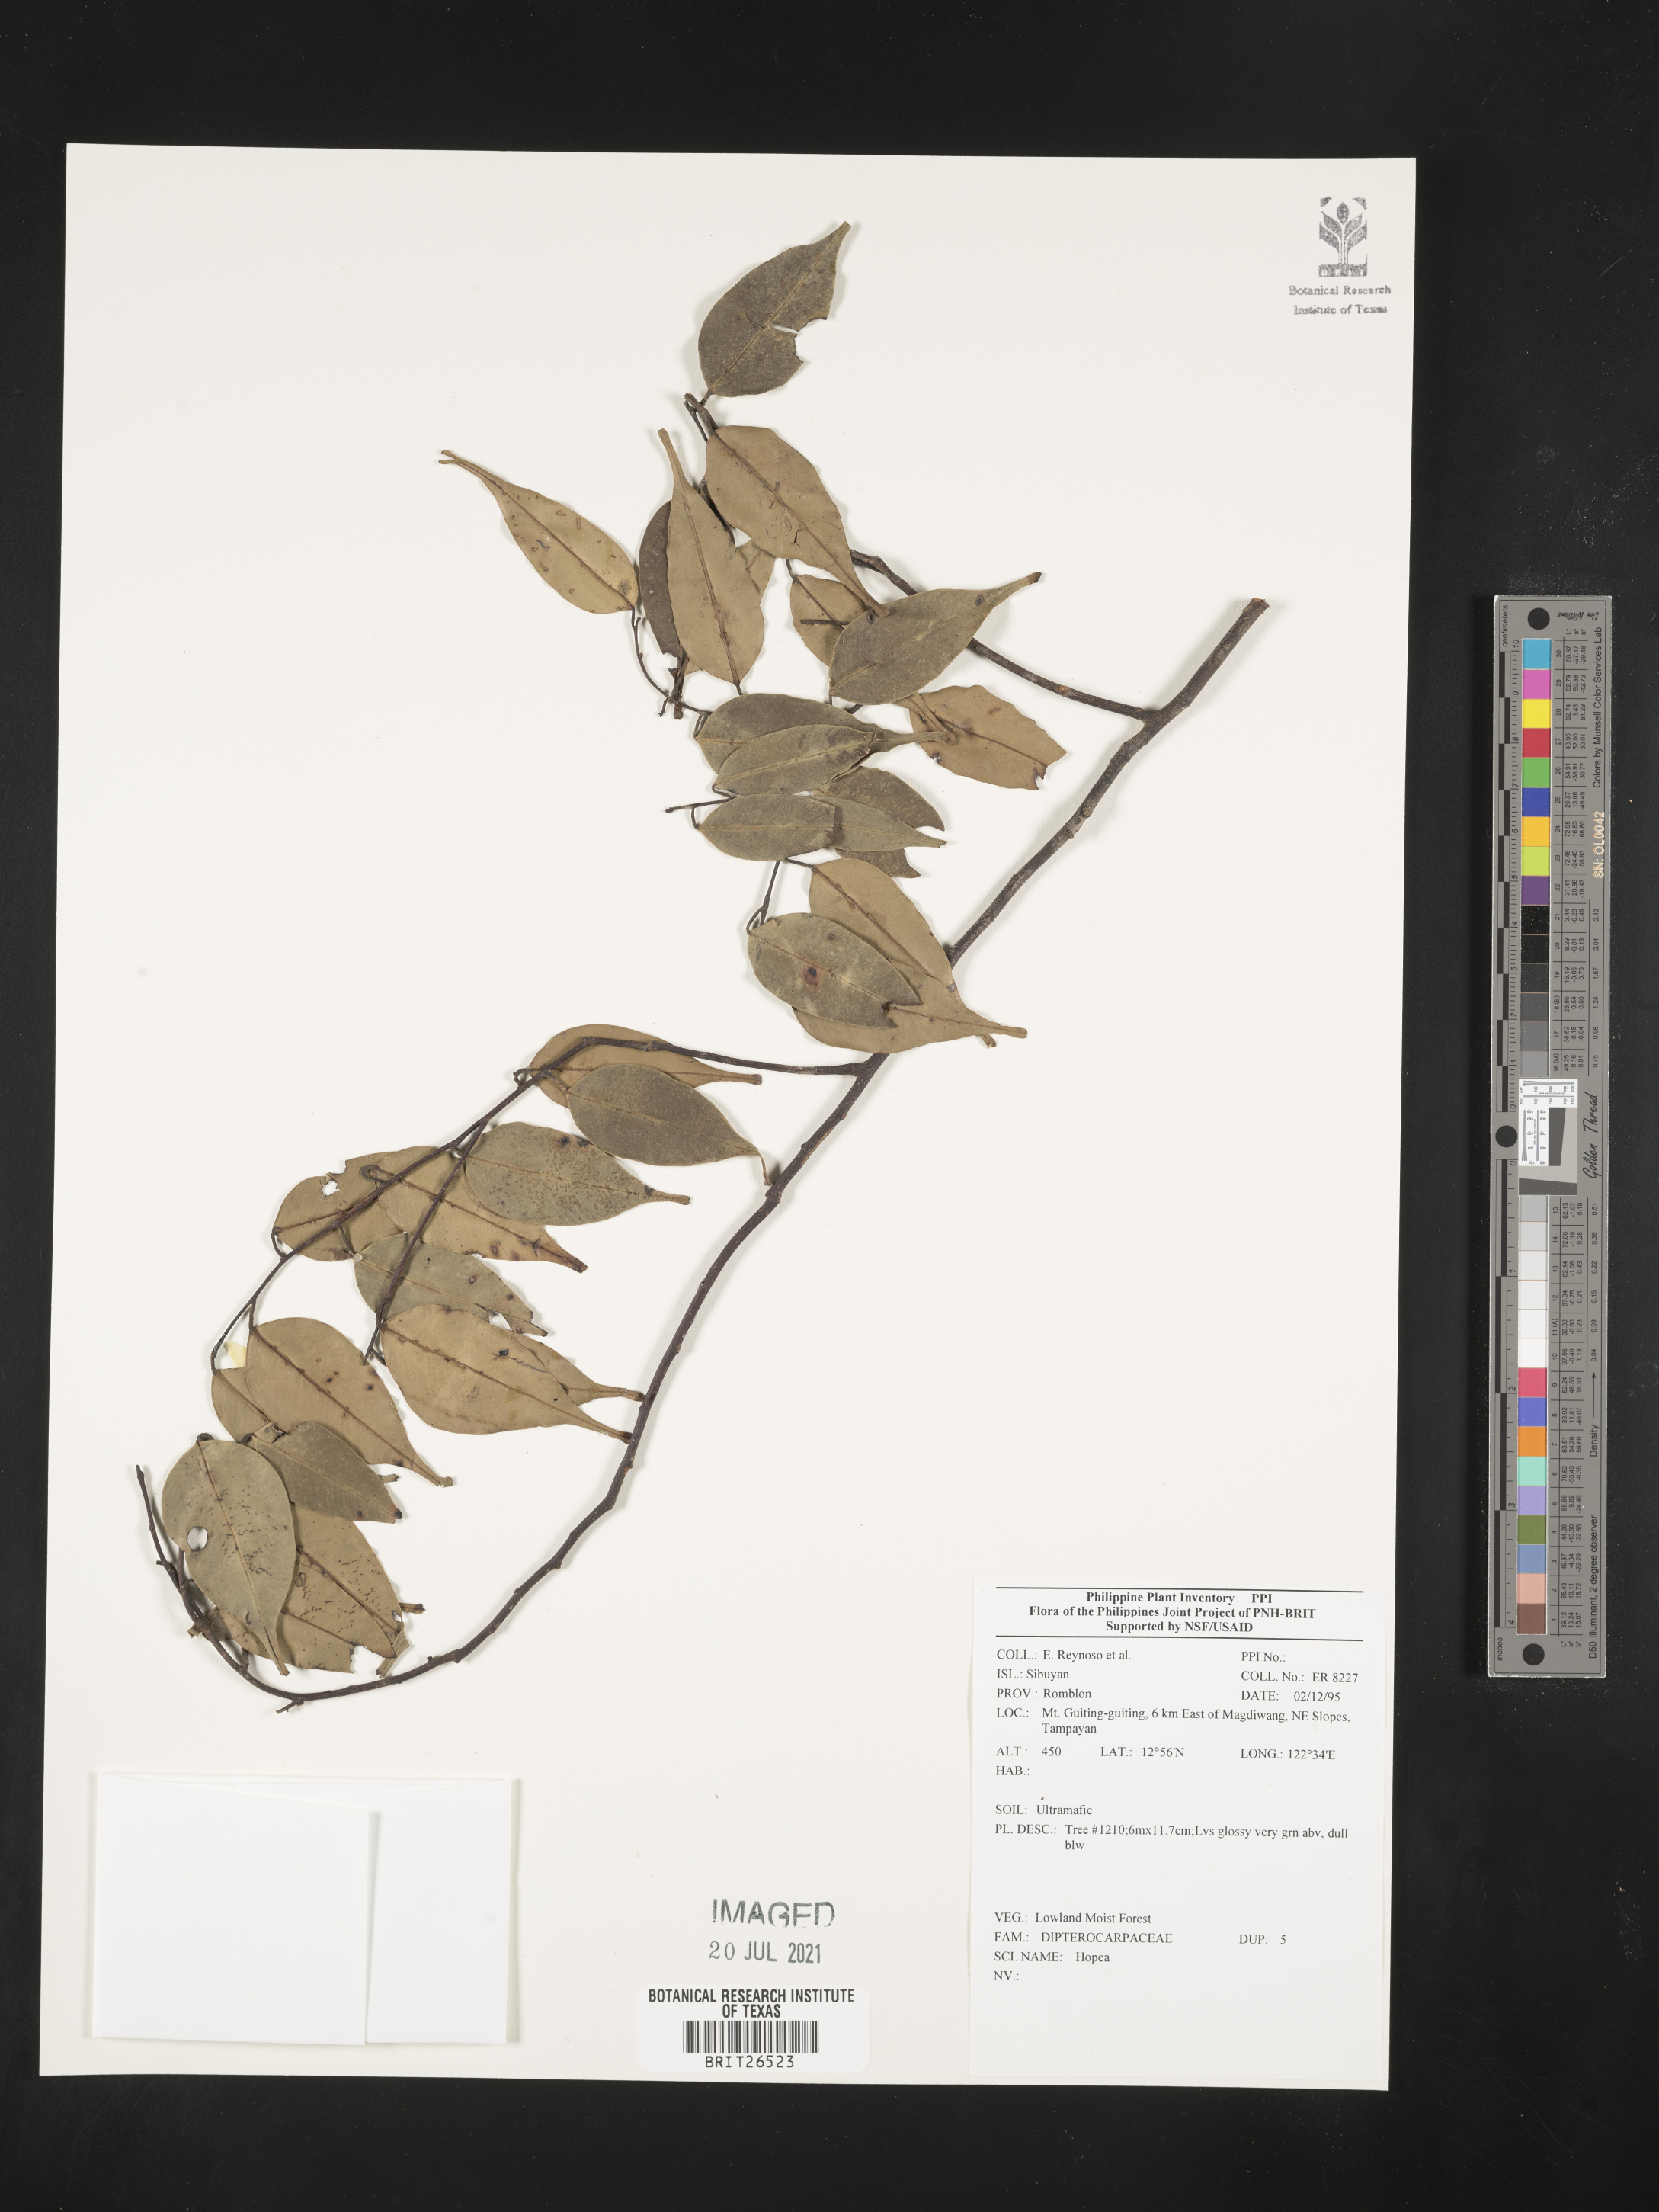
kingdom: Plantae
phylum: Tracheophyta
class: Magnoliopsida
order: Malvales
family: Dipterocarpaceae
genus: Hopea
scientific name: Hopea
